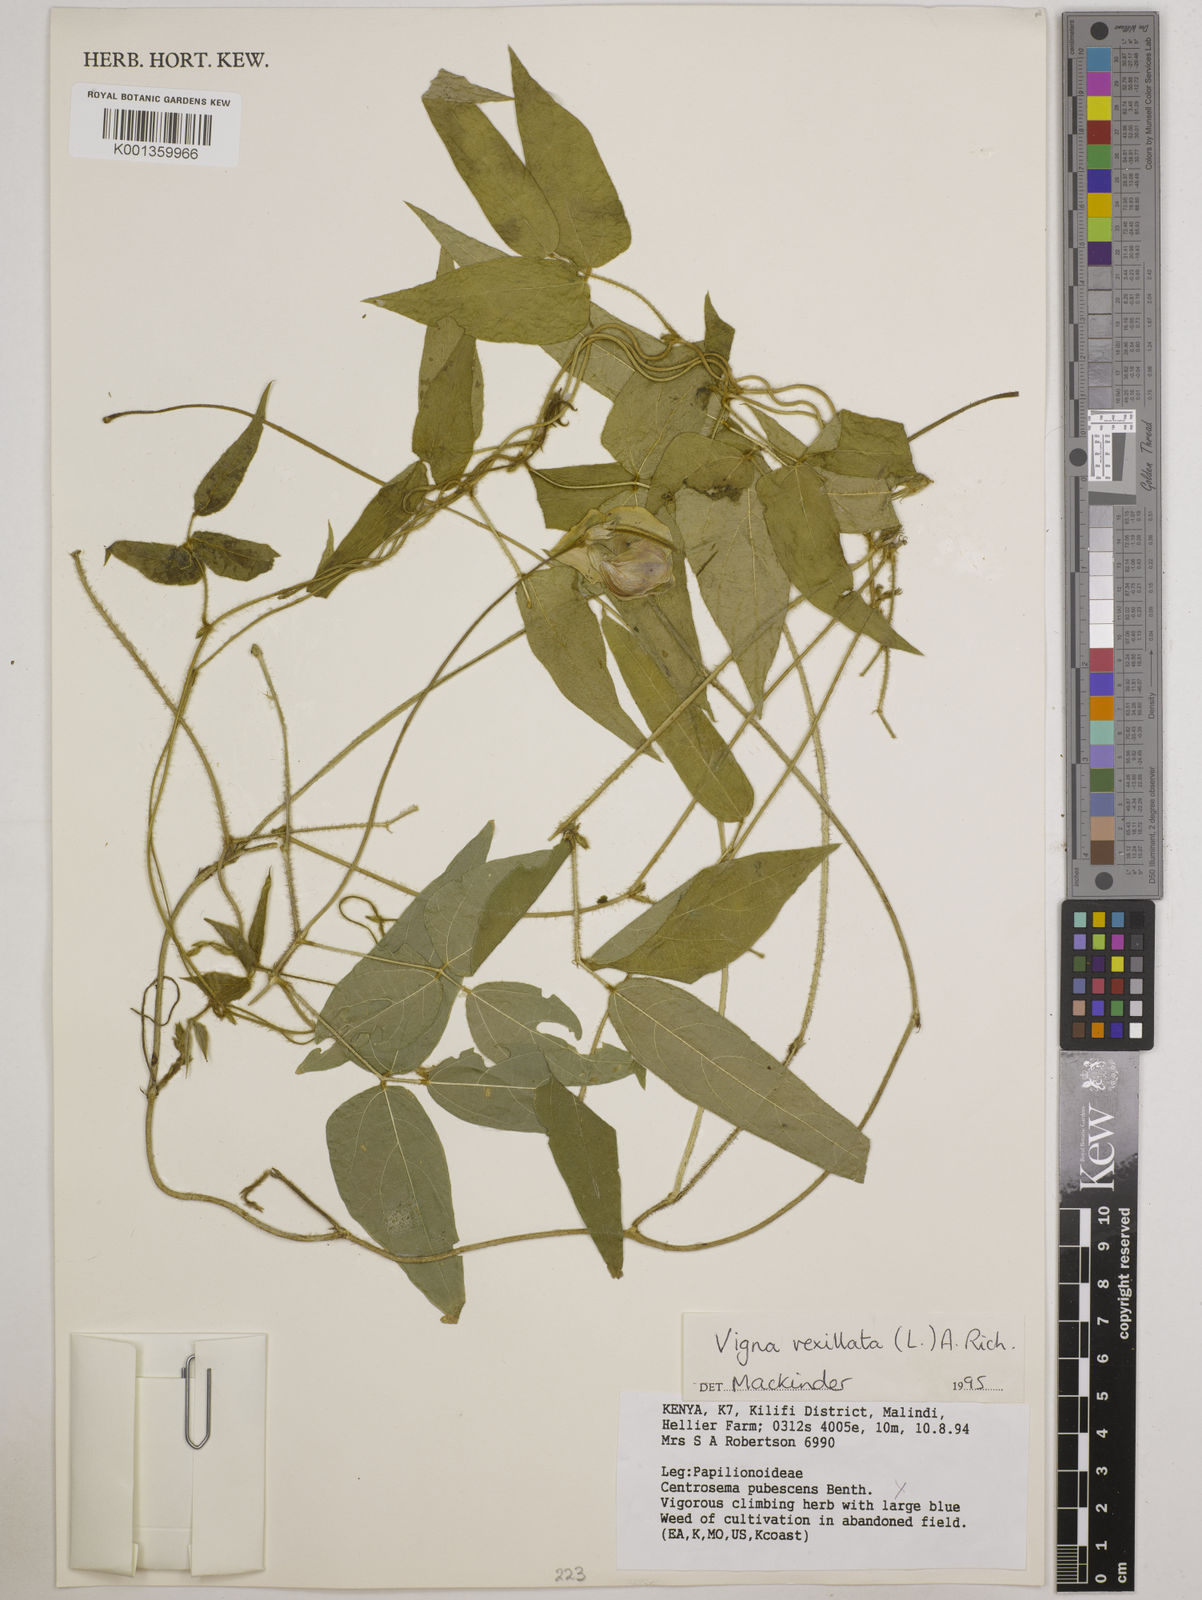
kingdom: Plantae
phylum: Tracheophyta
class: Magnoliopsida
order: Fabales
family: Fabaceae
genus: Vigna
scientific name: Vigna vexillata
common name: Zombi pea
